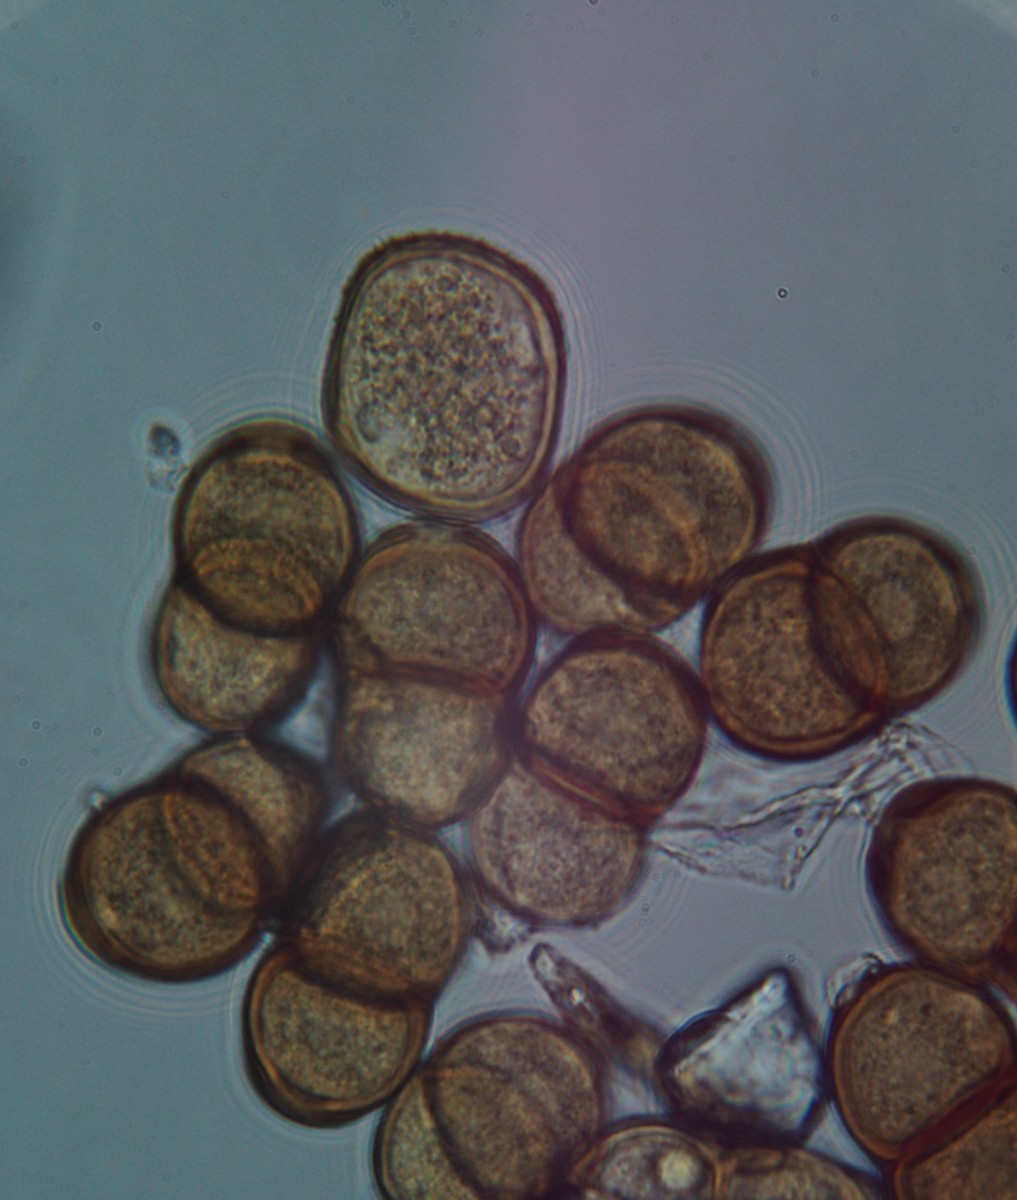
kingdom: Fungi
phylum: Basidiomycota
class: Pucciniomycetes
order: Pucciniales
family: Pucciniaceae
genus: Puccinia
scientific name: Puccinia pulverulenta
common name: dueurt-tvecellerust
